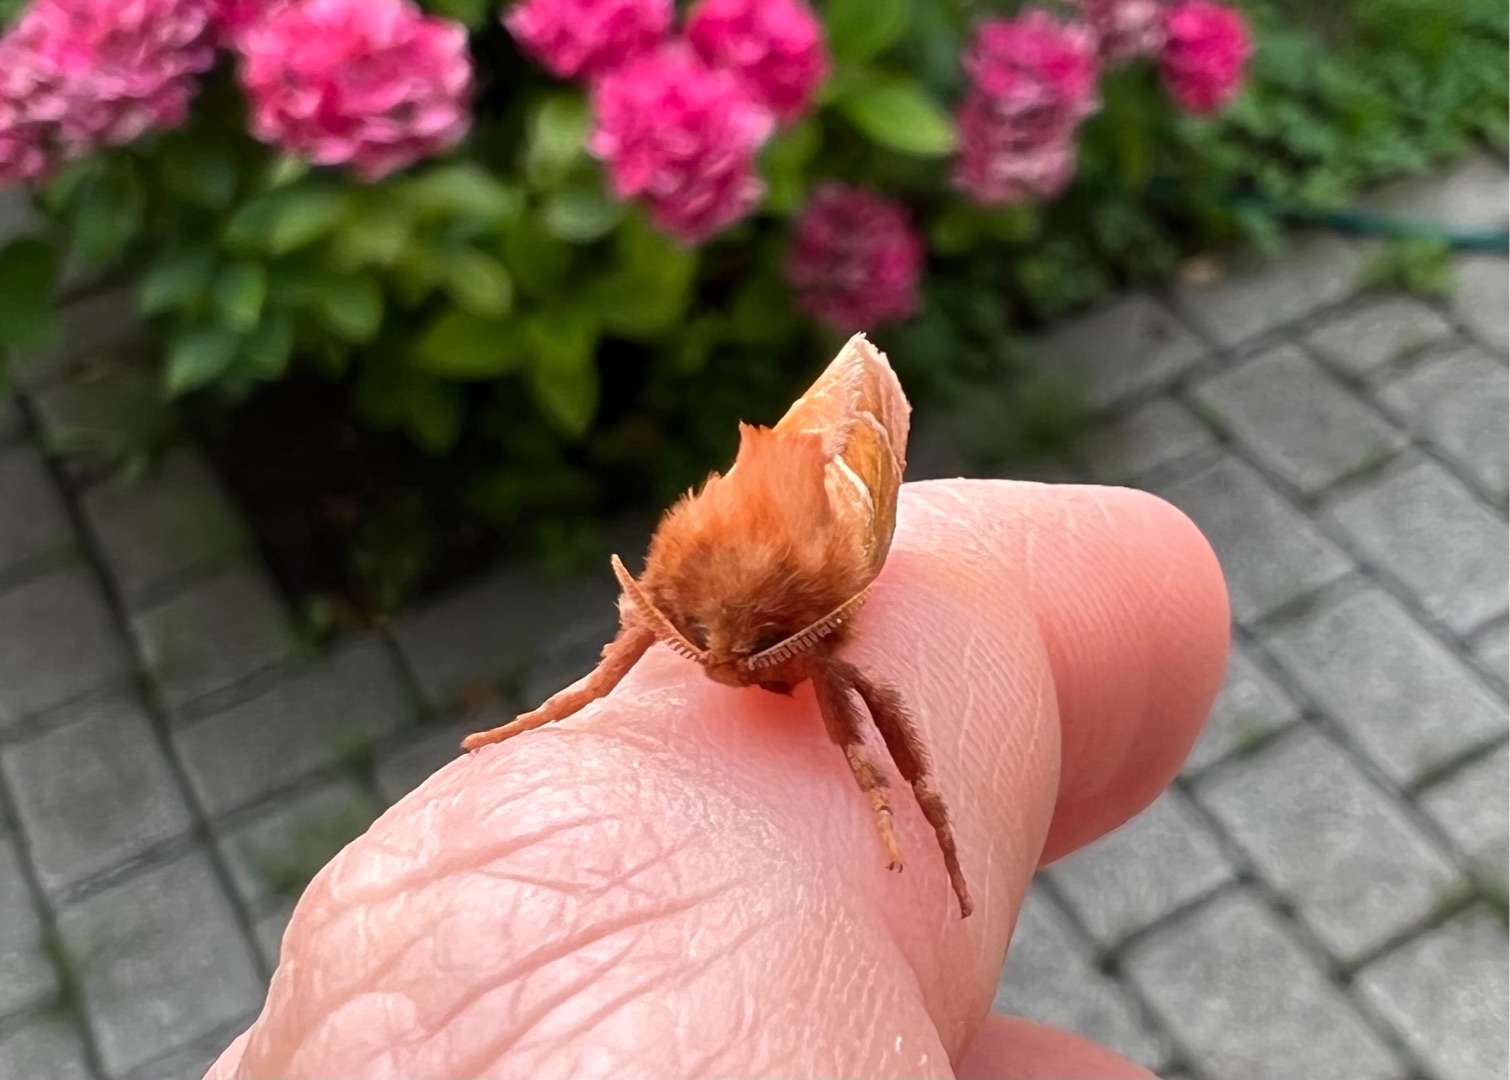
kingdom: Animalia
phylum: Arthropoda
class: Insecta
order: Lepidoptera
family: Hepialidae
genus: Triodia
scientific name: Triodia sylvina
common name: Skræpperodæder
